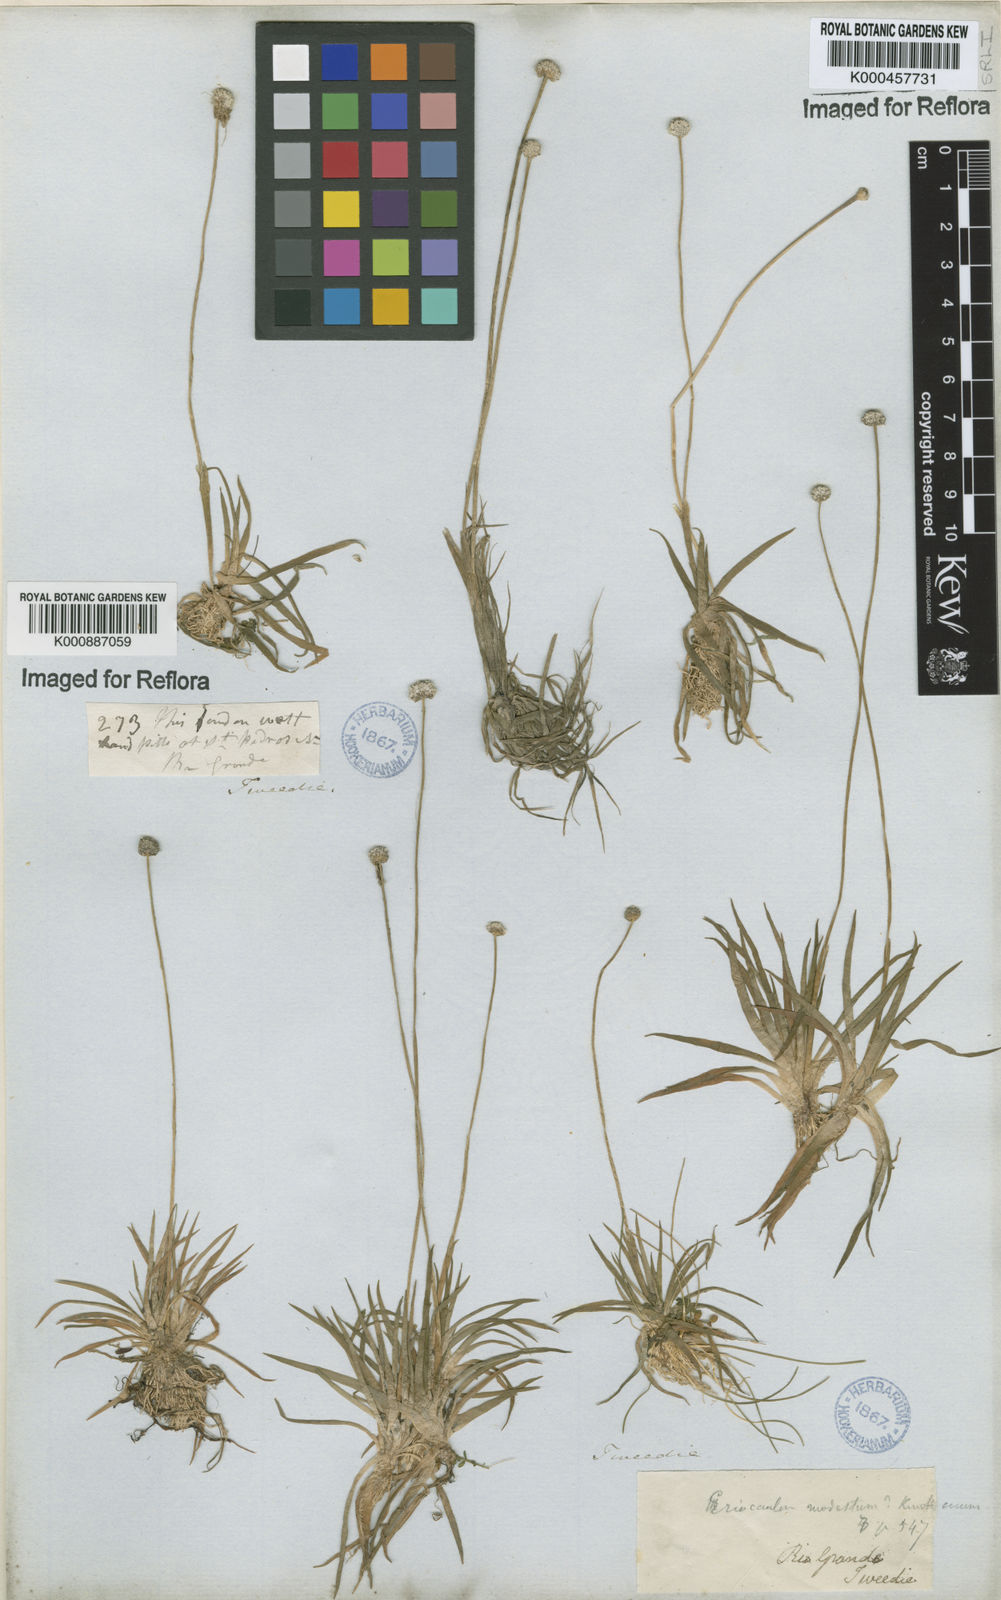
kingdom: Plantae
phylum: Tracheophyta
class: Liliopsida
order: Poales
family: Eriocaulaceae
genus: Eriocaulon
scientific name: Eriocaulon leptophyllum
